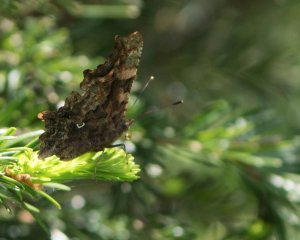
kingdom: Animalia
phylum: Arthropoda
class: Insecta
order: Lepidoptera
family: Nymphalidae
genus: Polygonia
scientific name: Polygonia faunus
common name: Green Comma
